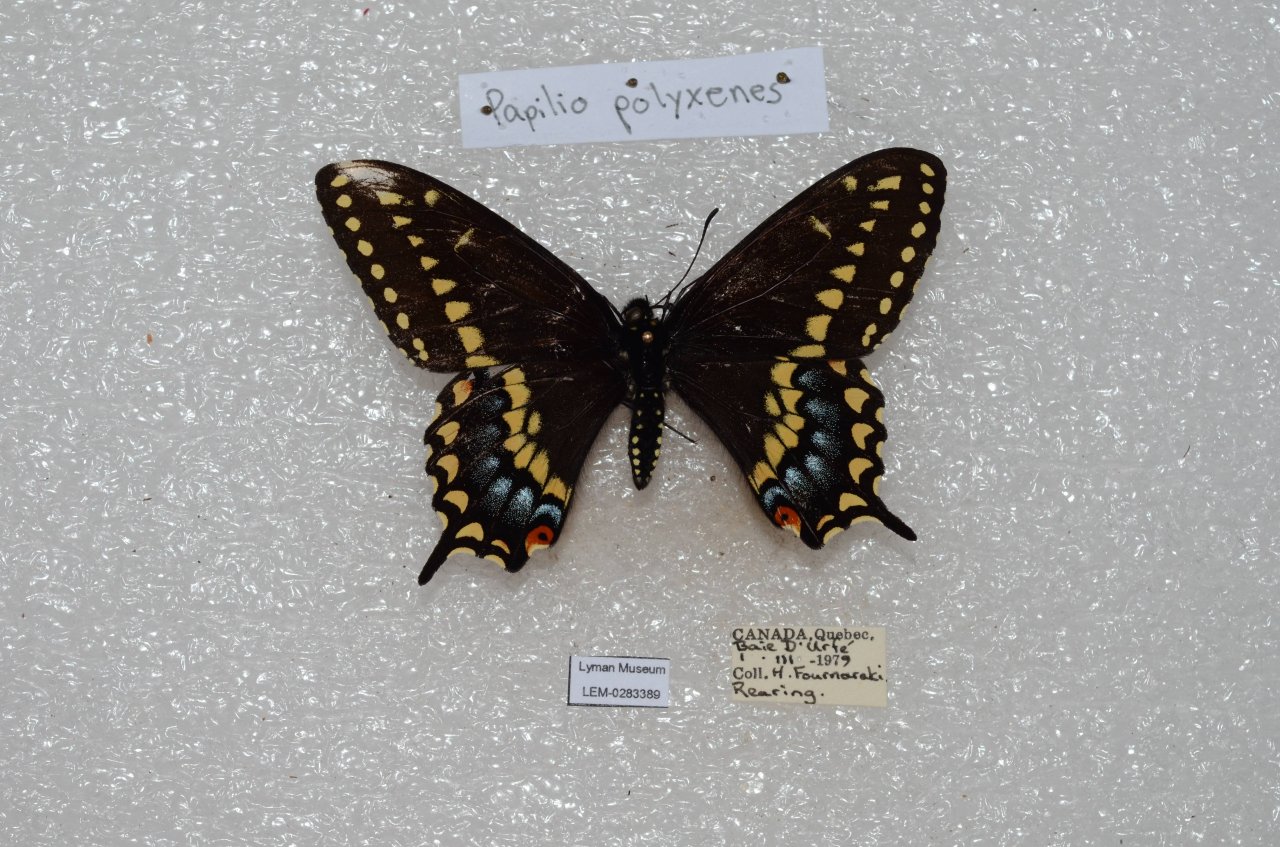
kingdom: Animalia
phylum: Arthropoda
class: Insecta
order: Lepidoptera
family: Papilionidae
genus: Papilio
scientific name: Papilio polyxenes
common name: Black Swallowtail
